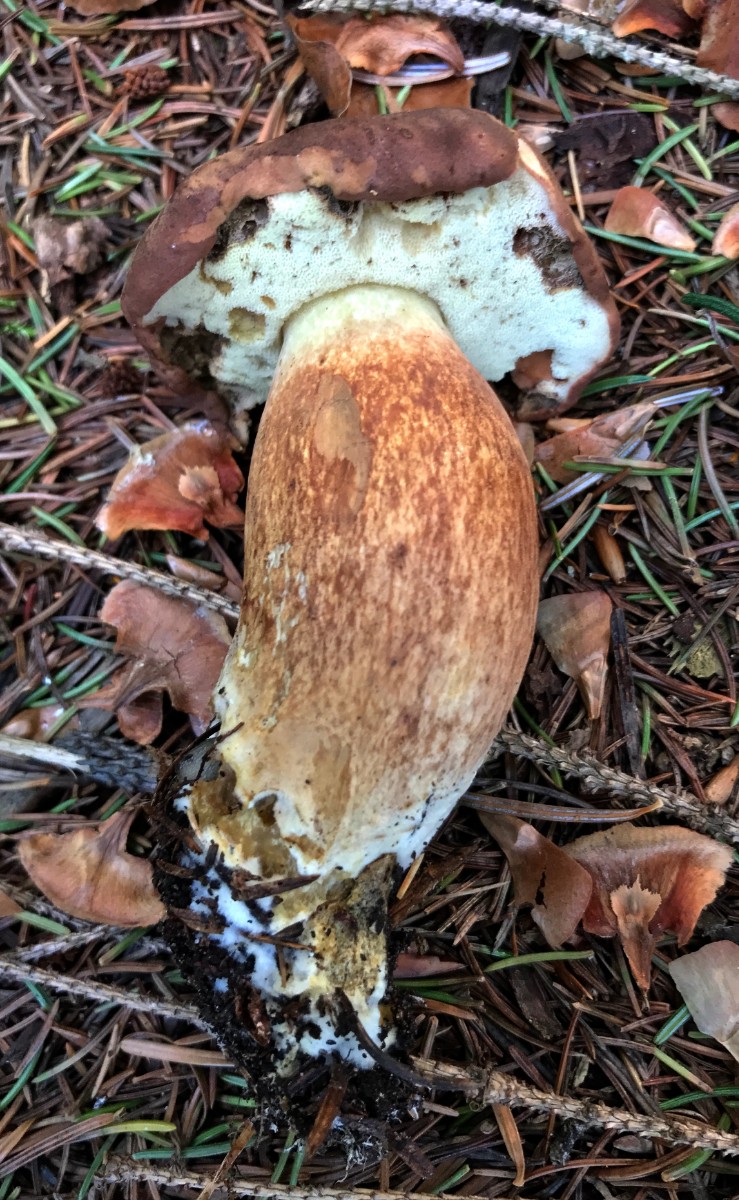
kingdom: Fungi
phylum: Basidiomycota
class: Agaricomycetes
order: Boletales
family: Boletaceae
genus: Imleria
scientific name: Imleria badia
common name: brunstokket rørhat
